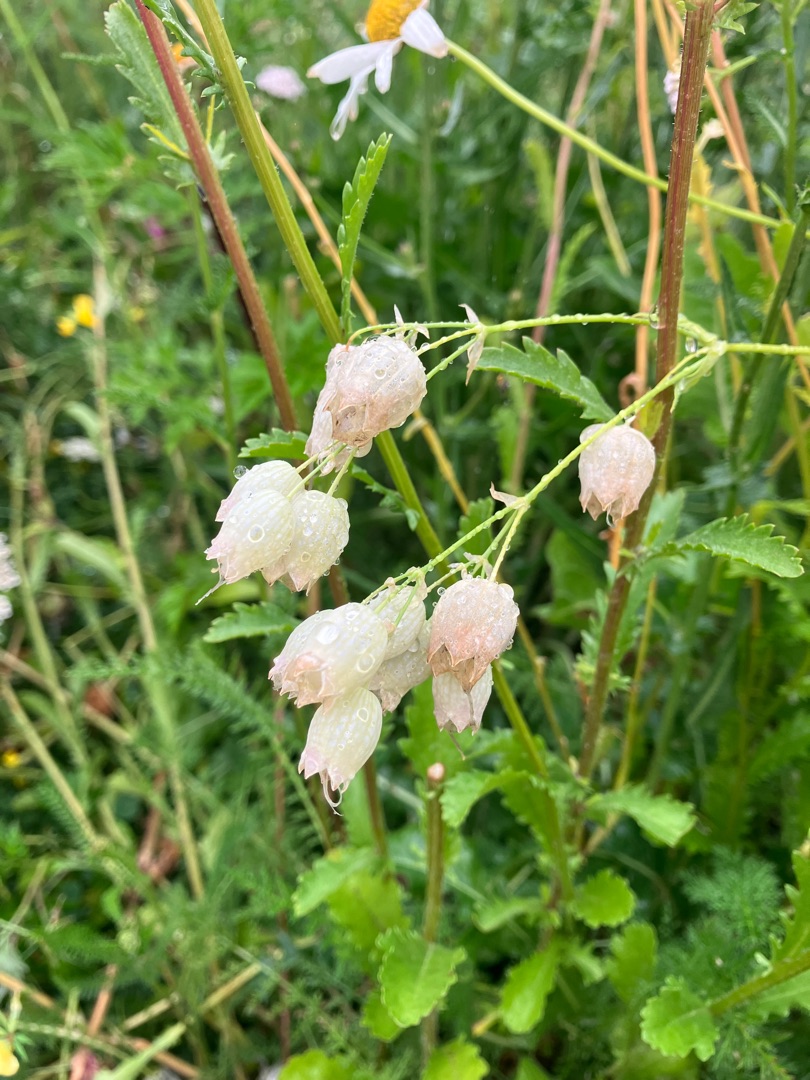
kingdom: Plantae
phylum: Tracheophyta
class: Magnoliopsida
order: Caryophyllales
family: Caryophyllaceae
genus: Silene
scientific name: Silene vulgaris
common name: Blæresmælde
